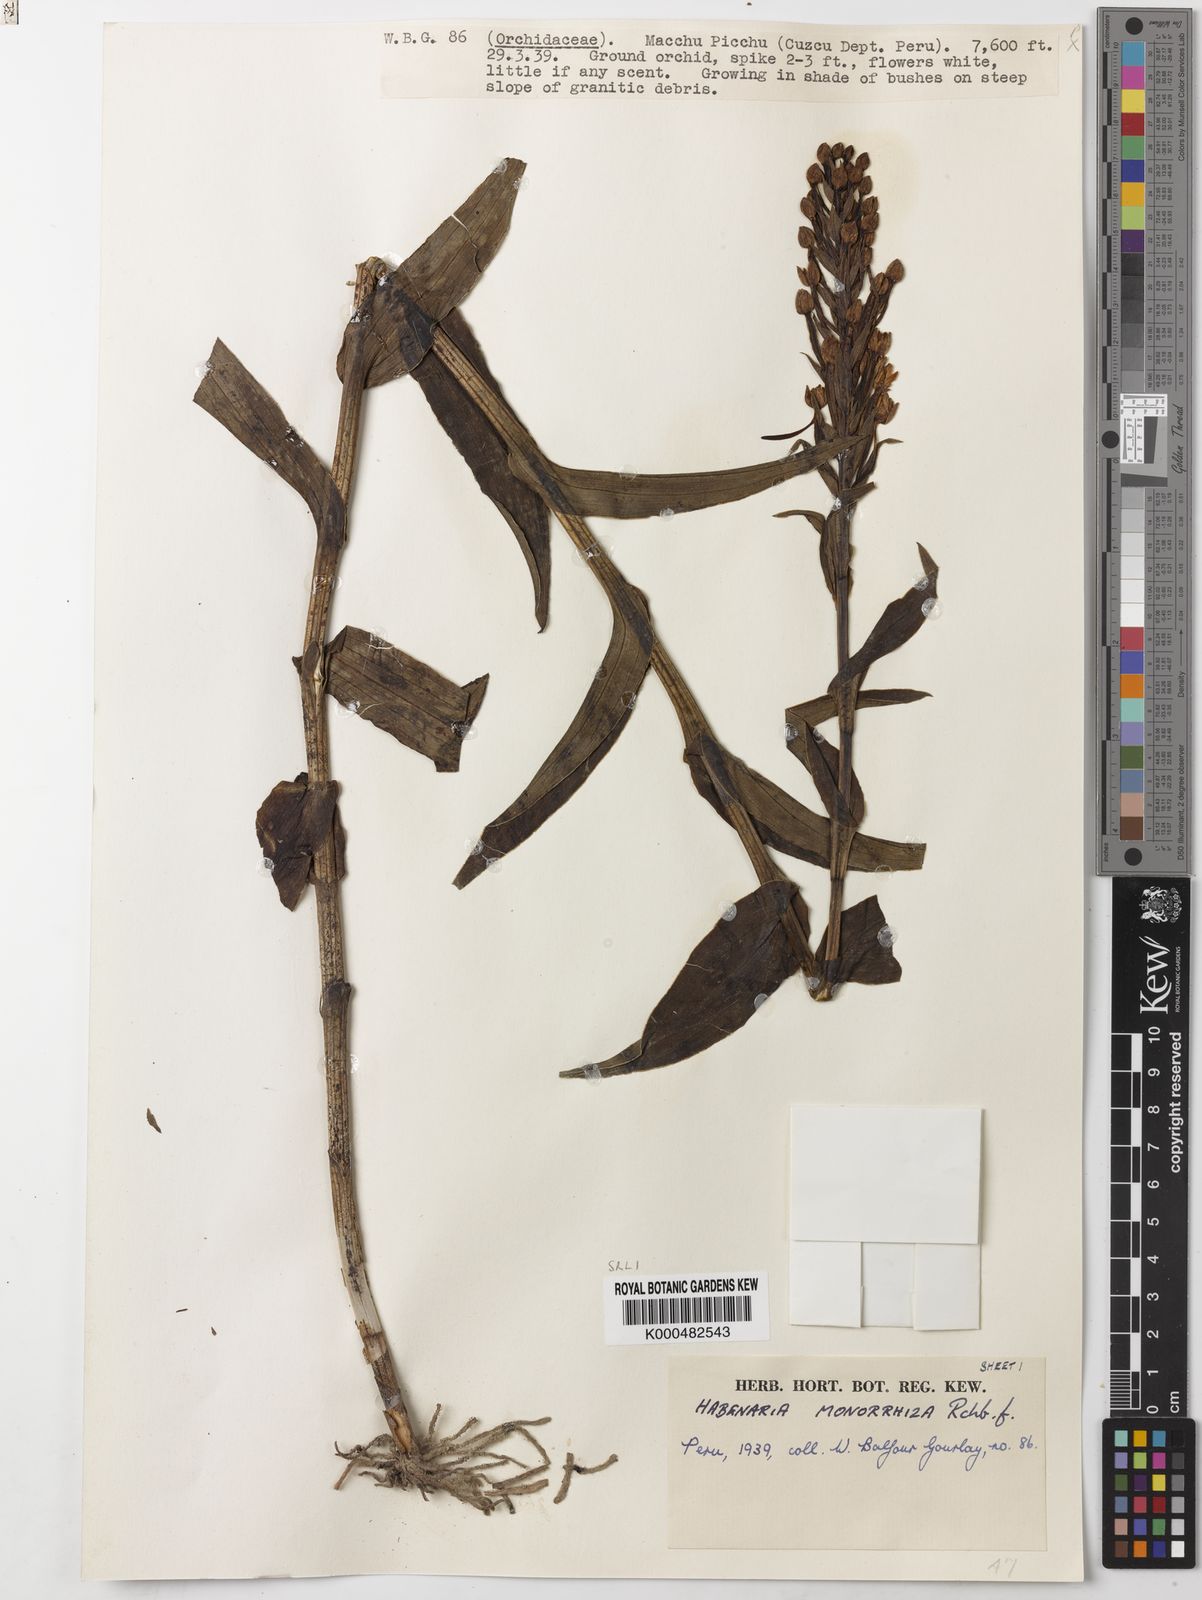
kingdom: Plantae
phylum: Tracheophyta
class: Liliopsida
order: Asparagales
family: Orchidaceae
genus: Habenaria
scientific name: Habenaria monorrhiza
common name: Tropical bog orchid
